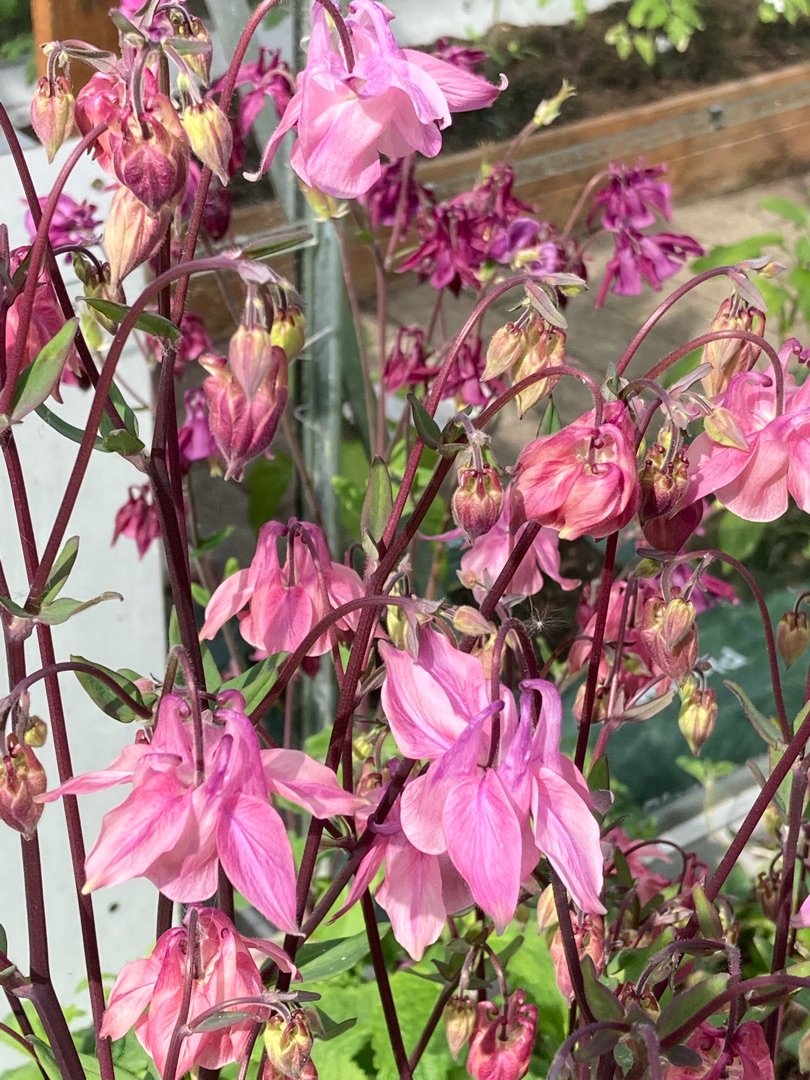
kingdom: Plantae
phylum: Tracheophyta
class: Magnoliopsida
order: Ranunculales
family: Ranunculaceae
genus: Aquilegia
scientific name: Aquilegia vulgaris
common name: Akeleje
